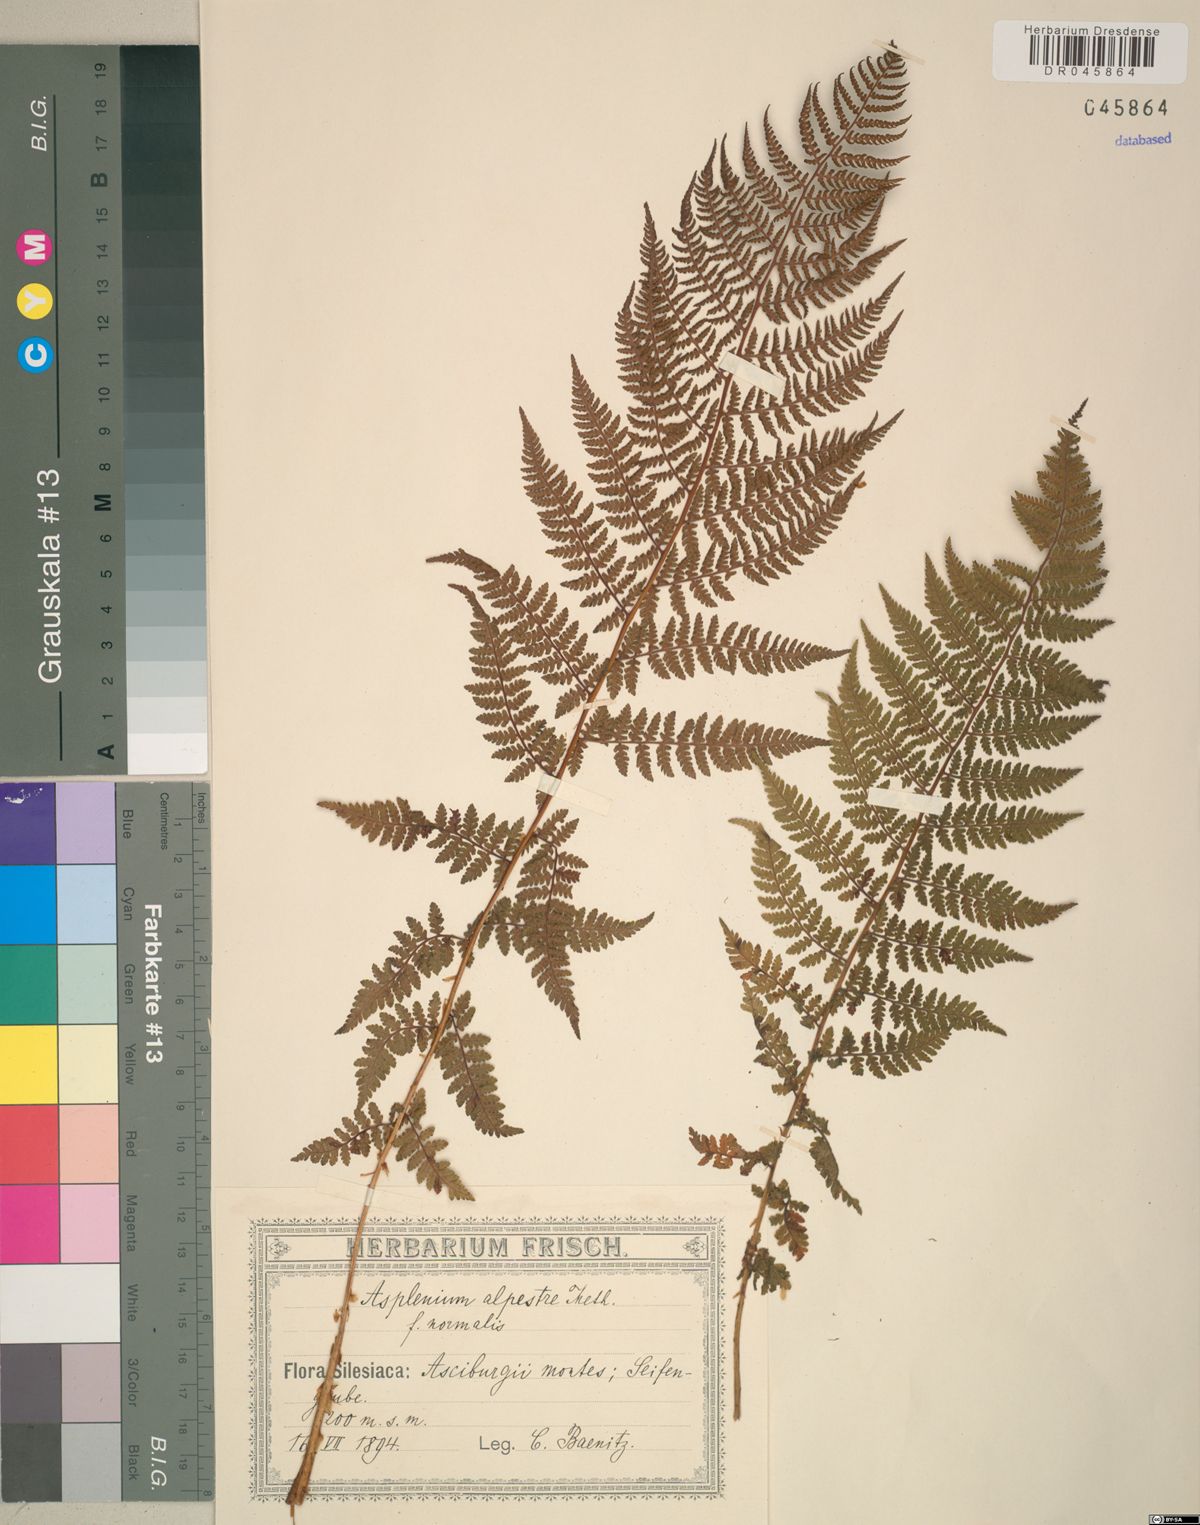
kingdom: Plantae
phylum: Tracheophyta
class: Polypodiopsida
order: Polypodiales
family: Athyriaceae
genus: Diplazium
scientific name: Diplazium pallidum
